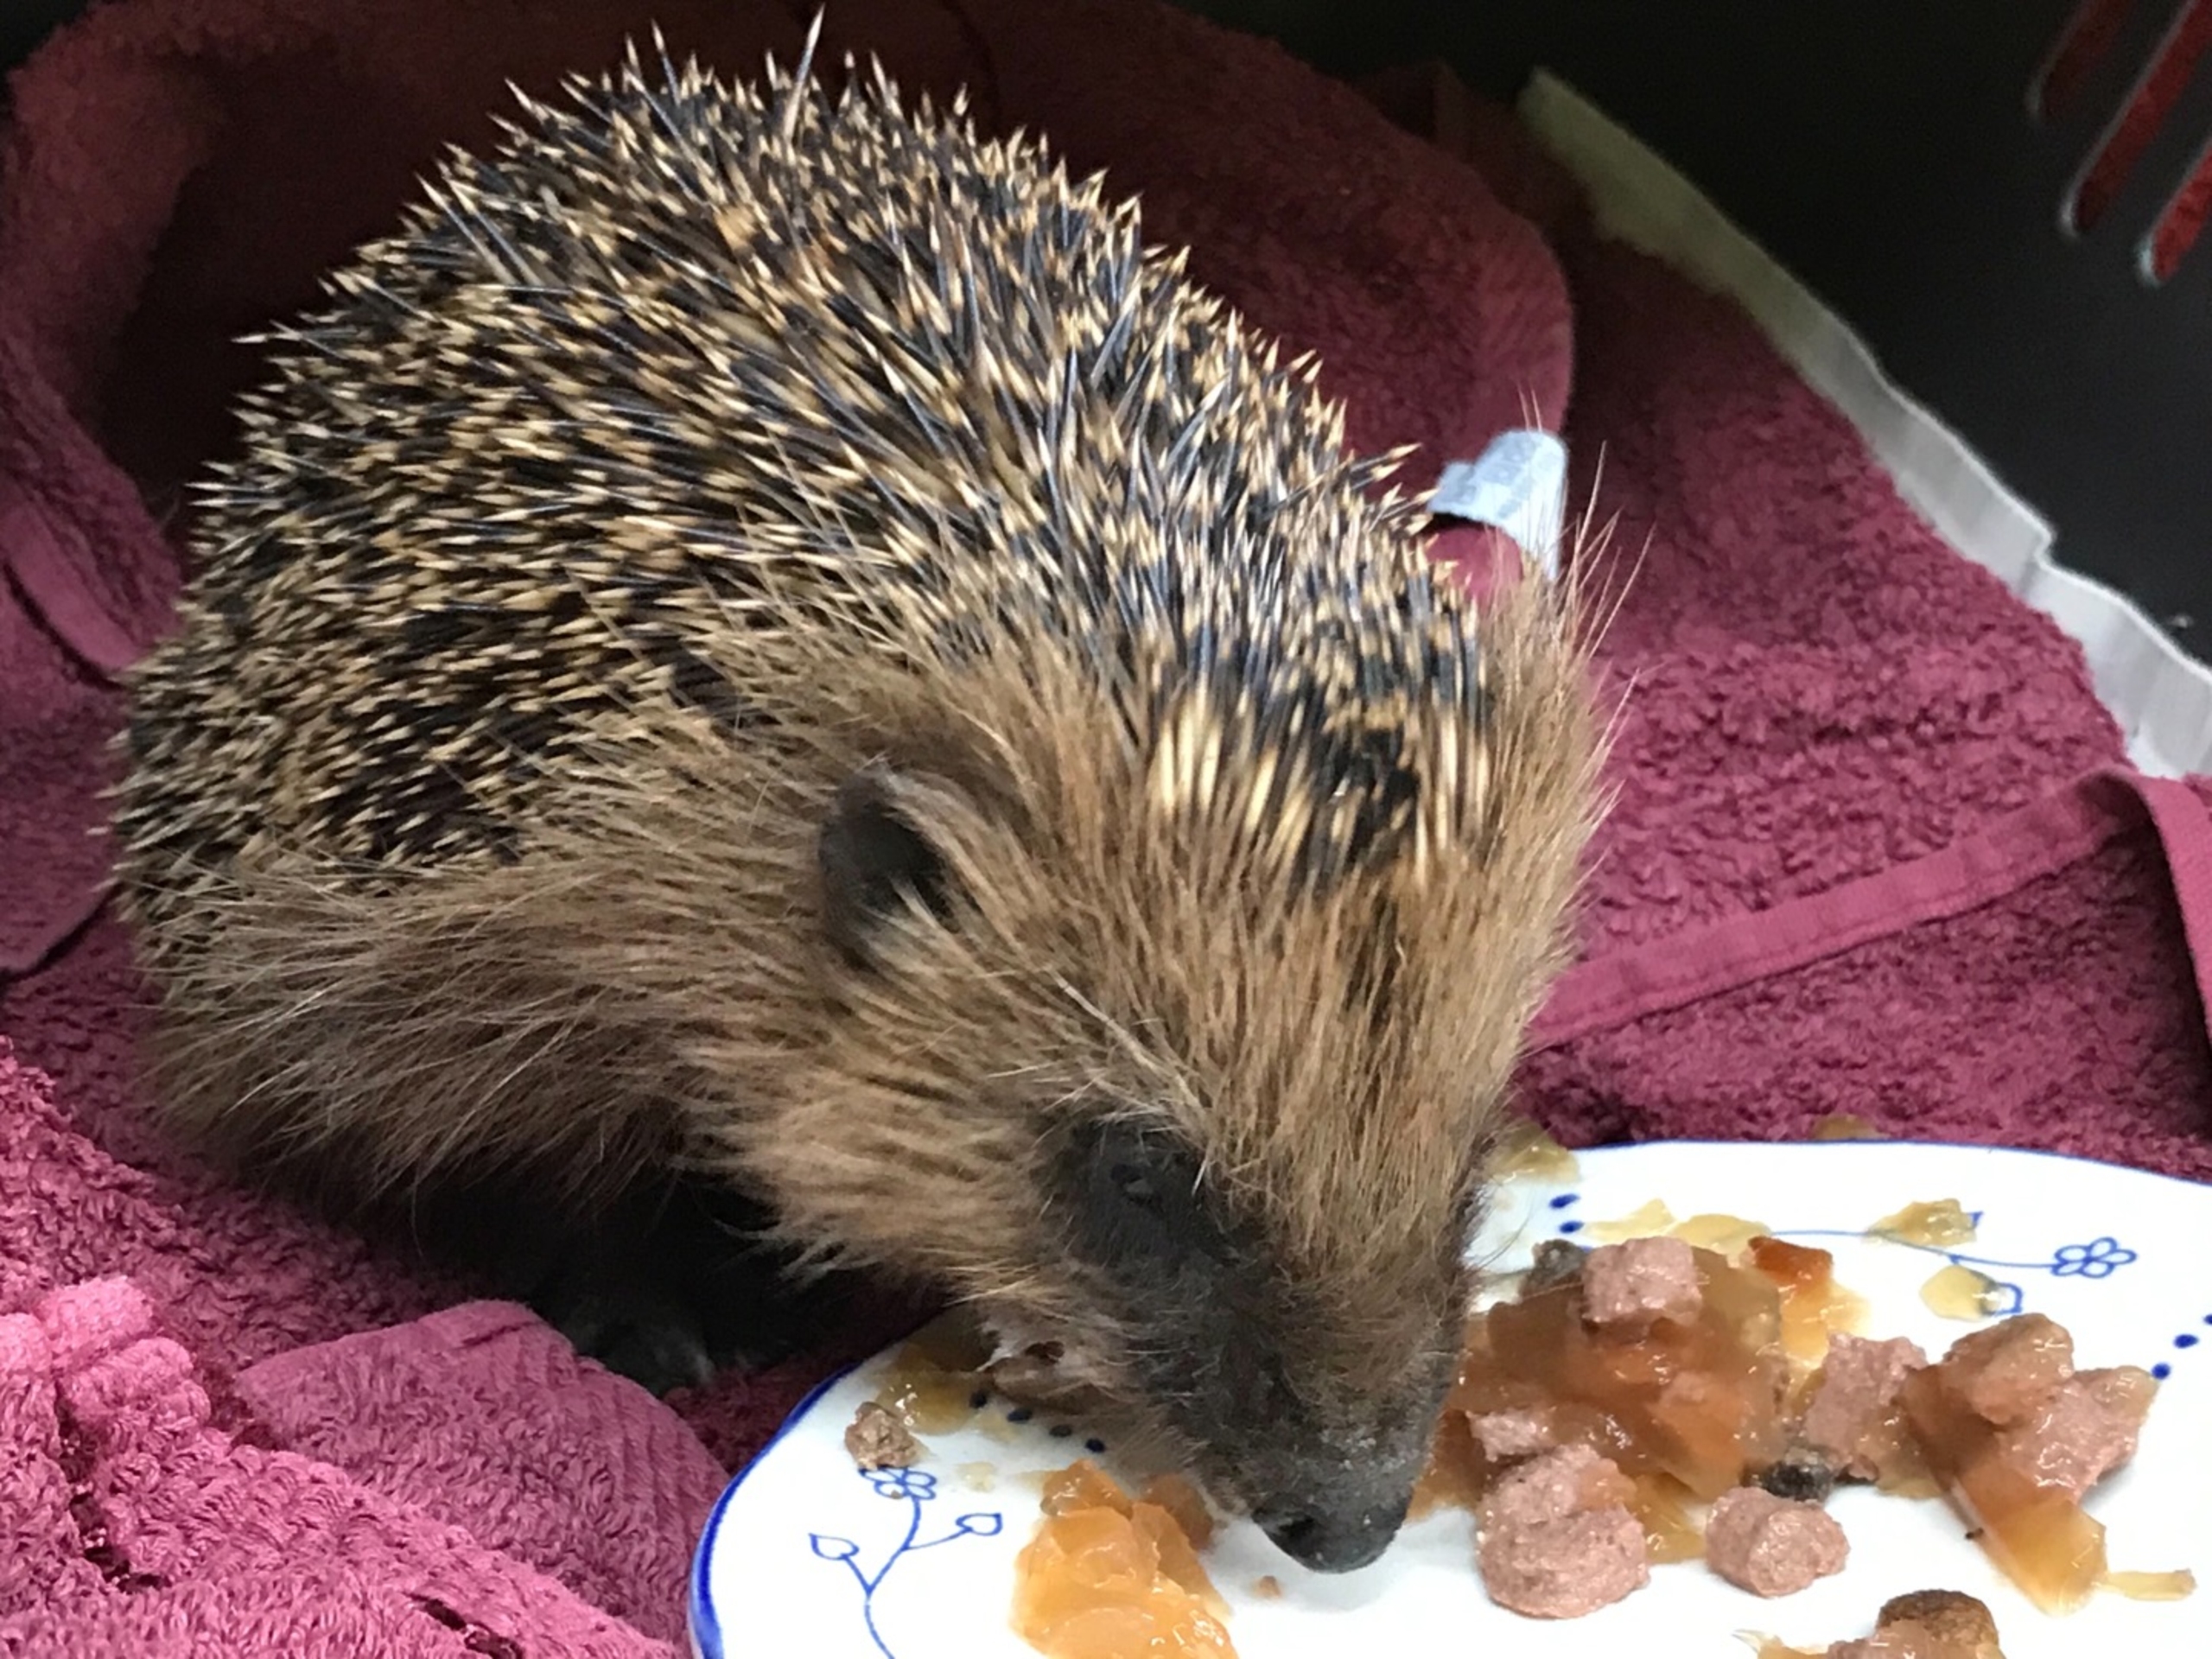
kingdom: Animalia
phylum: Chordata
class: Mammalia
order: Erinaceomorpha
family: Erinaceidae
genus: Erinaceus
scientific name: Erinaceus europaeus
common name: Pindsvin
